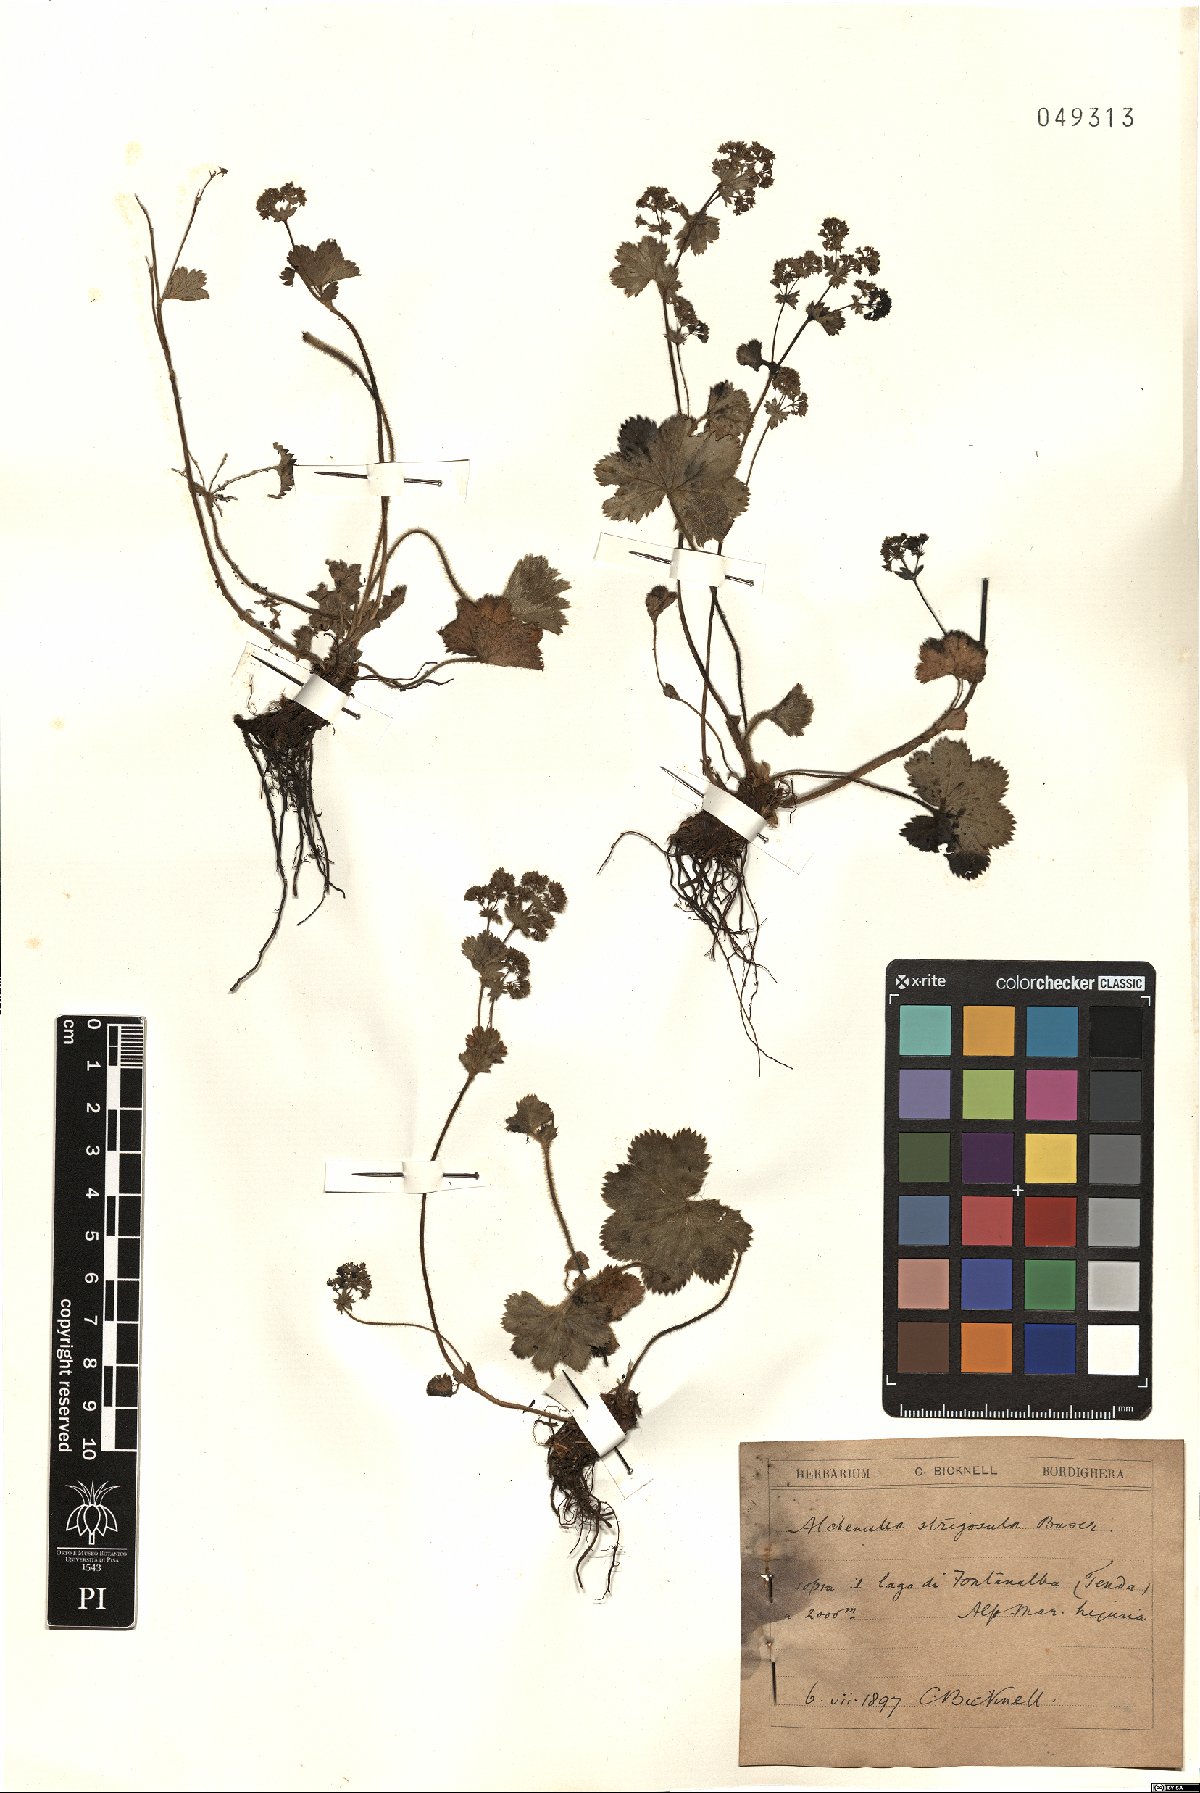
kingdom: Plantae
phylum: Tracheophyta
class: Magnoliopsida
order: Rosales
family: Rosaceae
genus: Alchemilla
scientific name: Alchemilla strigosula
